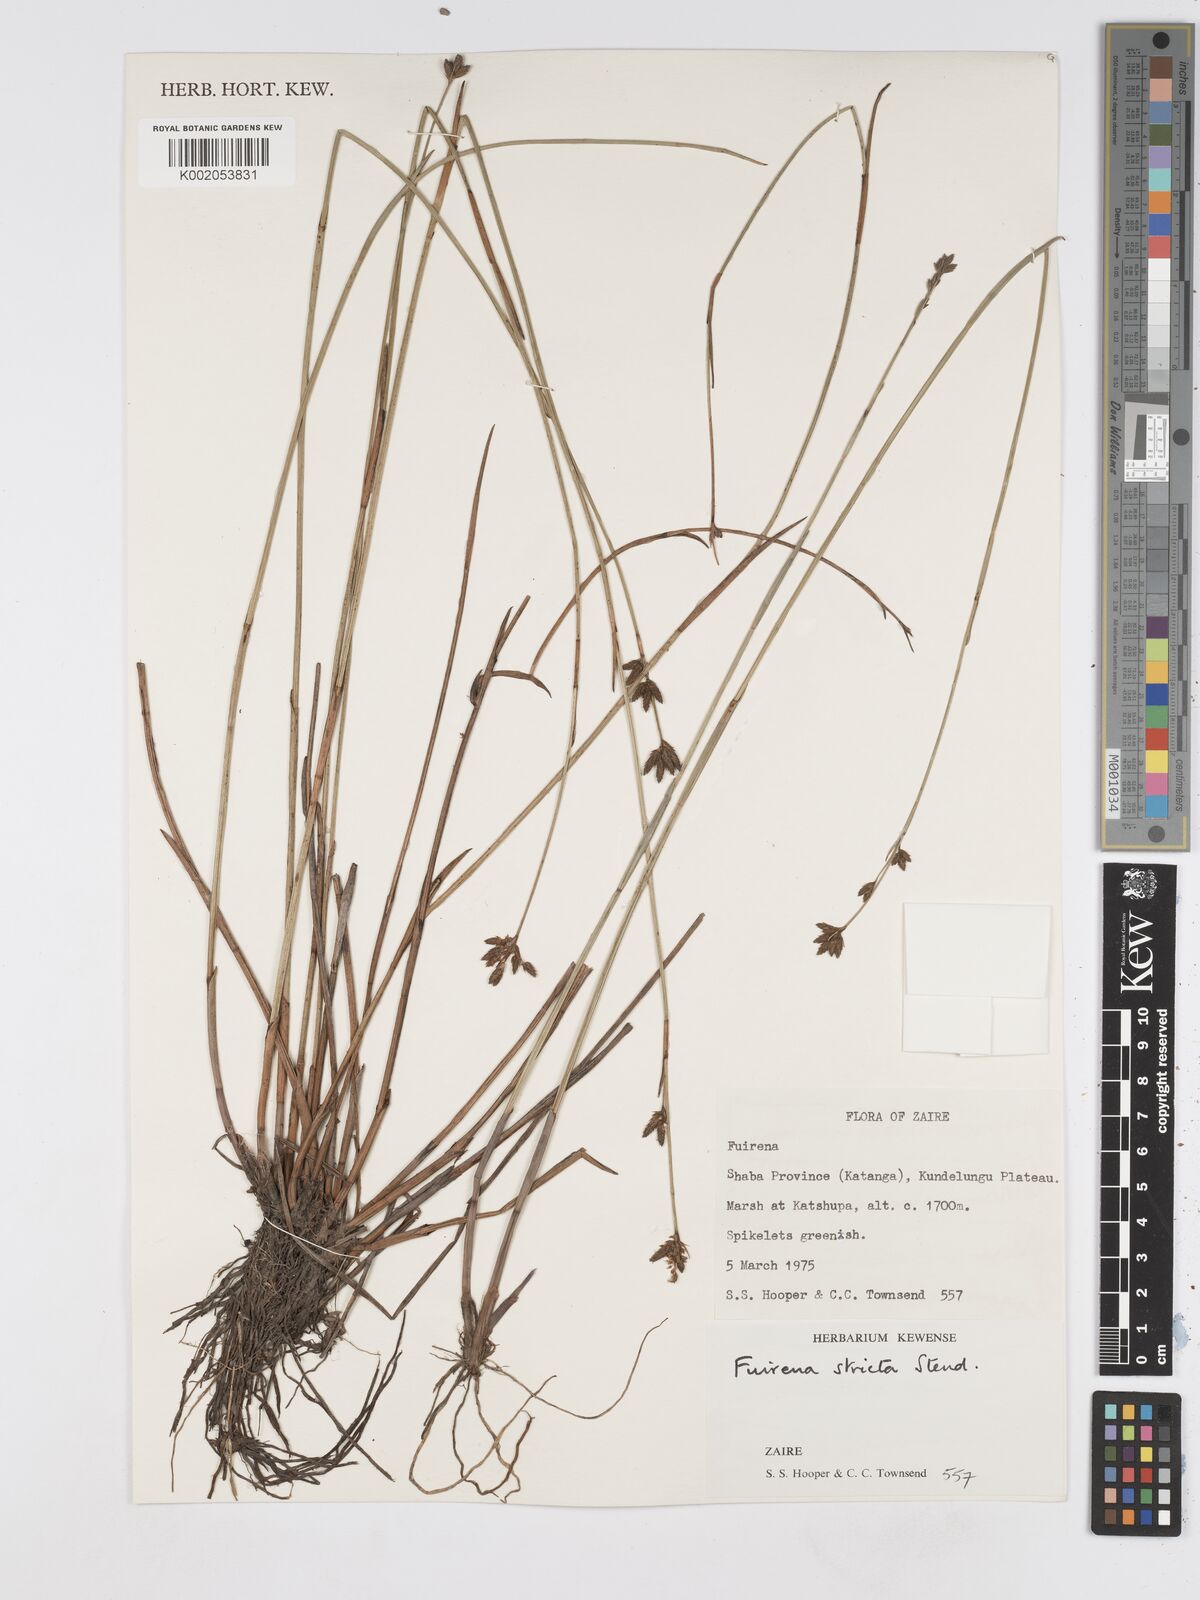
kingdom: Plantae
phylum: Tracheophyta
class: Liliopsida
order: Poales
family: Cyperaceae
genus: Fuirena
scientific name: Fuirena stricta
